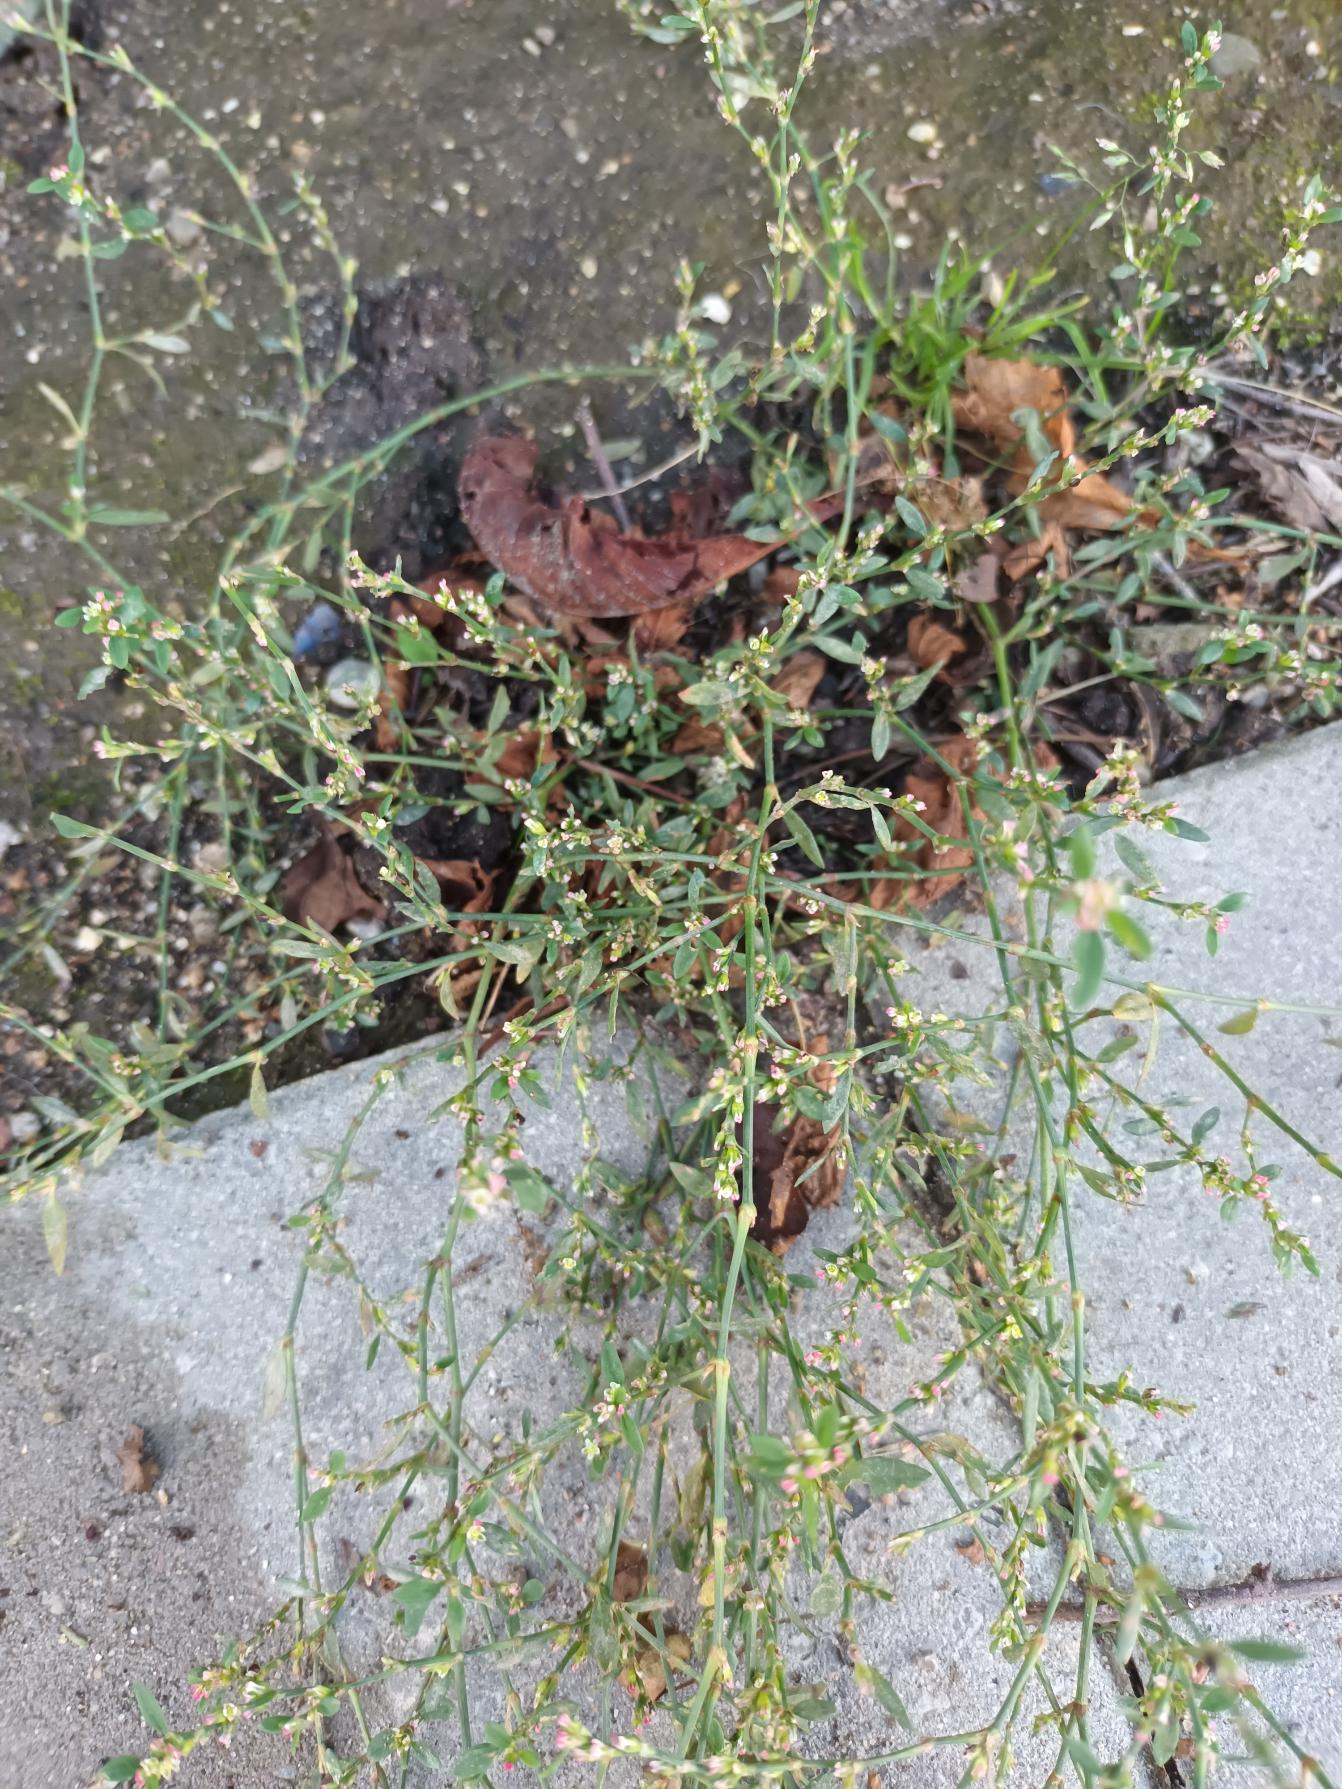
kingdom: Plantae
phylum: Tracheophyta
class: Magnoliopsida
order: Caryophyllales
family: Polygonaceae
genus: Polygonum
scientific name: Polygonum arenastrum
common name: Liggende vej-pileurt
